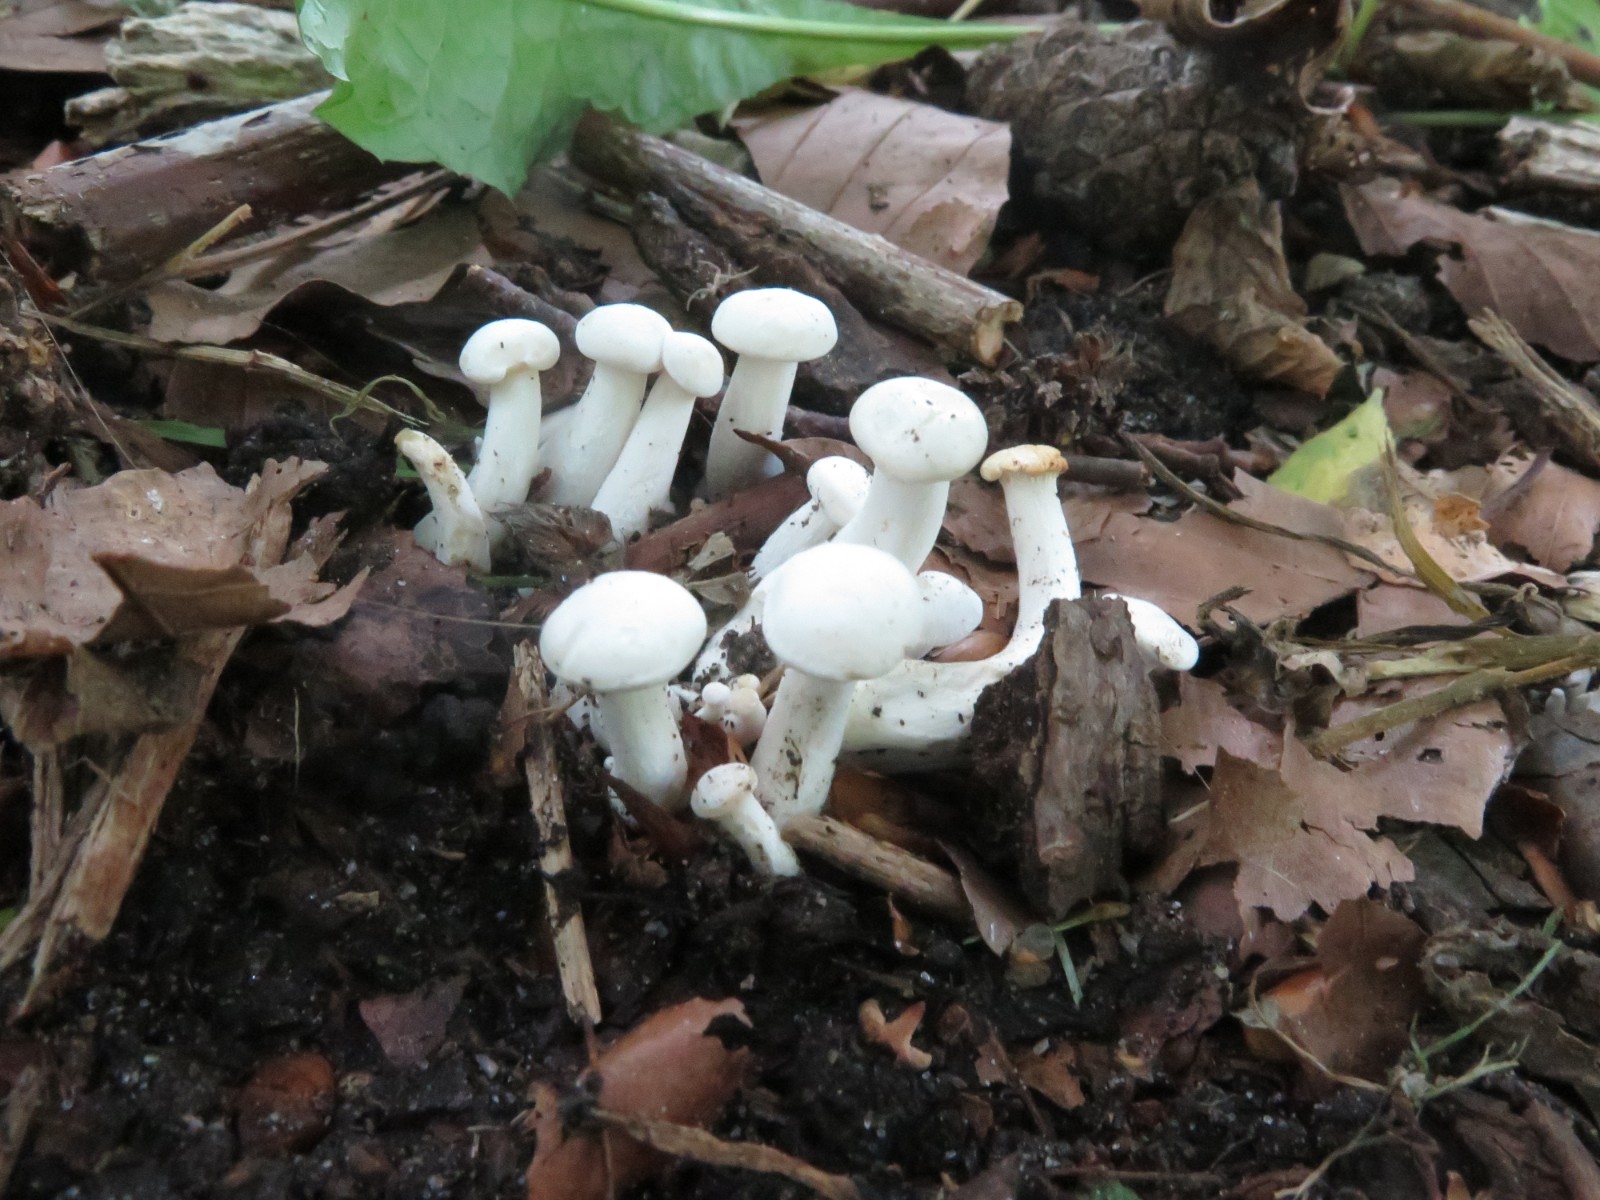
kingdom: Fungi
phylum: Basidiomycota
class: Agaricomycetes
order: Agaricales
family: Tricholomataceae
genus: Leucocybe
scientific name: Leucocybe connata
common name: knippe-tragthat
